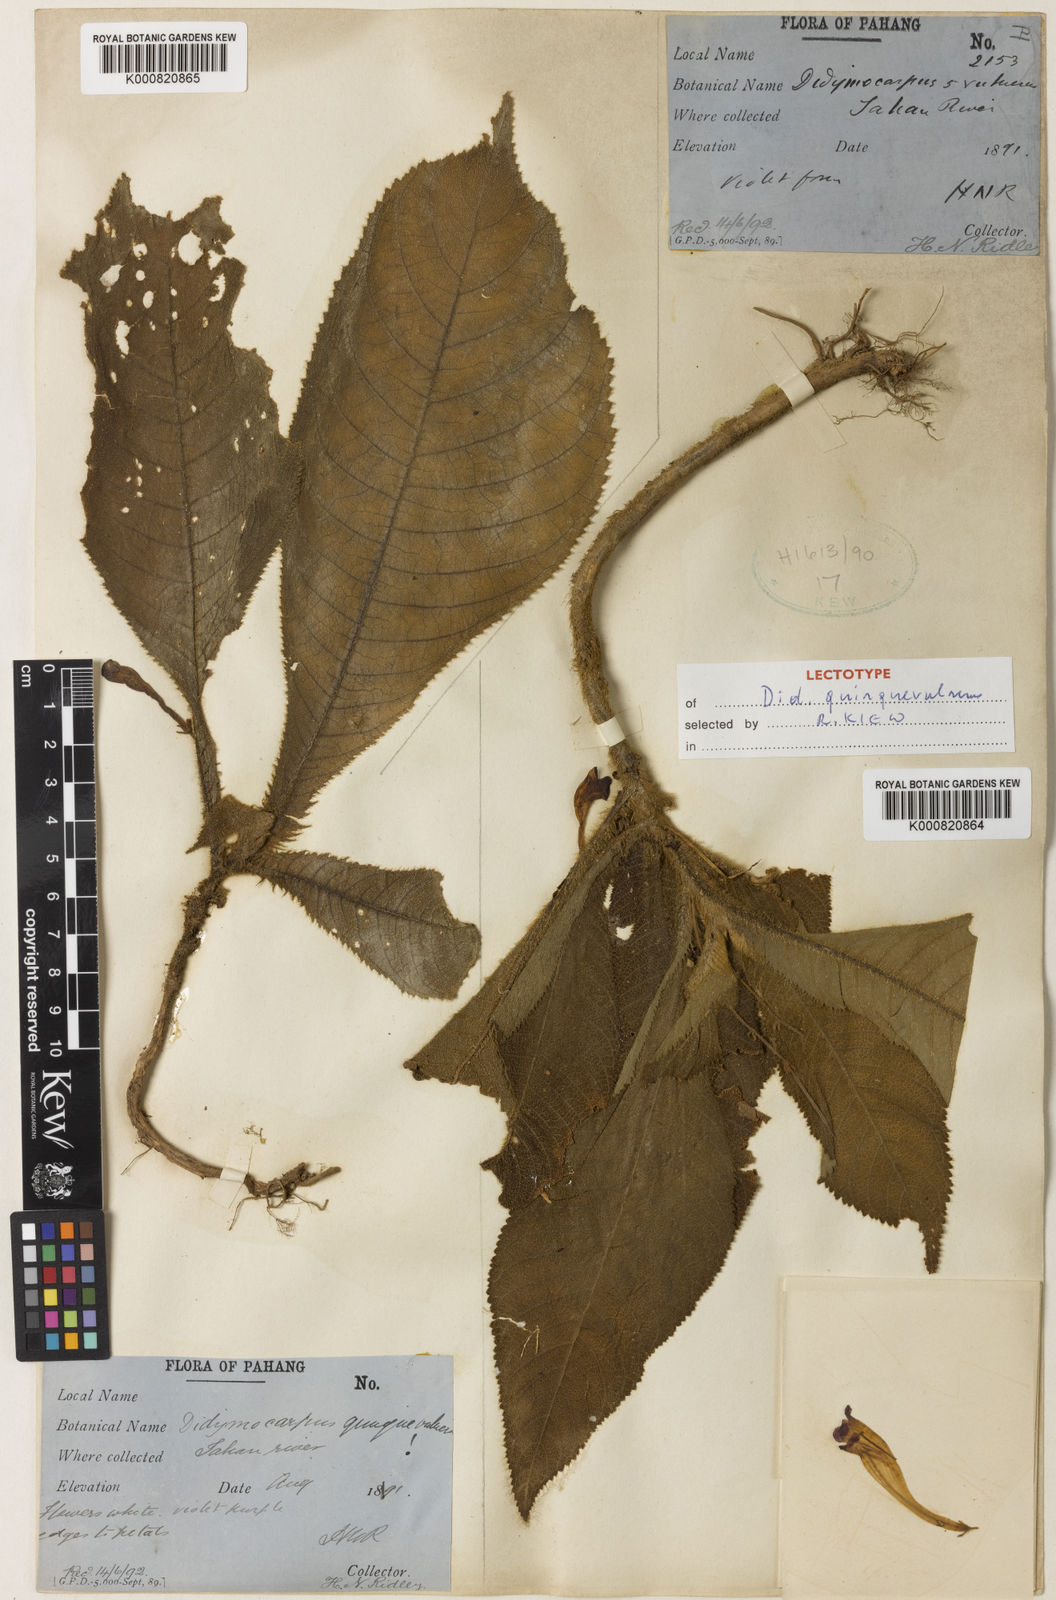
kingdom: Plantae
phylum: Tracheophyta
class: Magnoliopsida
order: Lamiales
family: Gesneriaceae
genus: Codonoboea
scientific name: Codonoboea quinquevulnera
